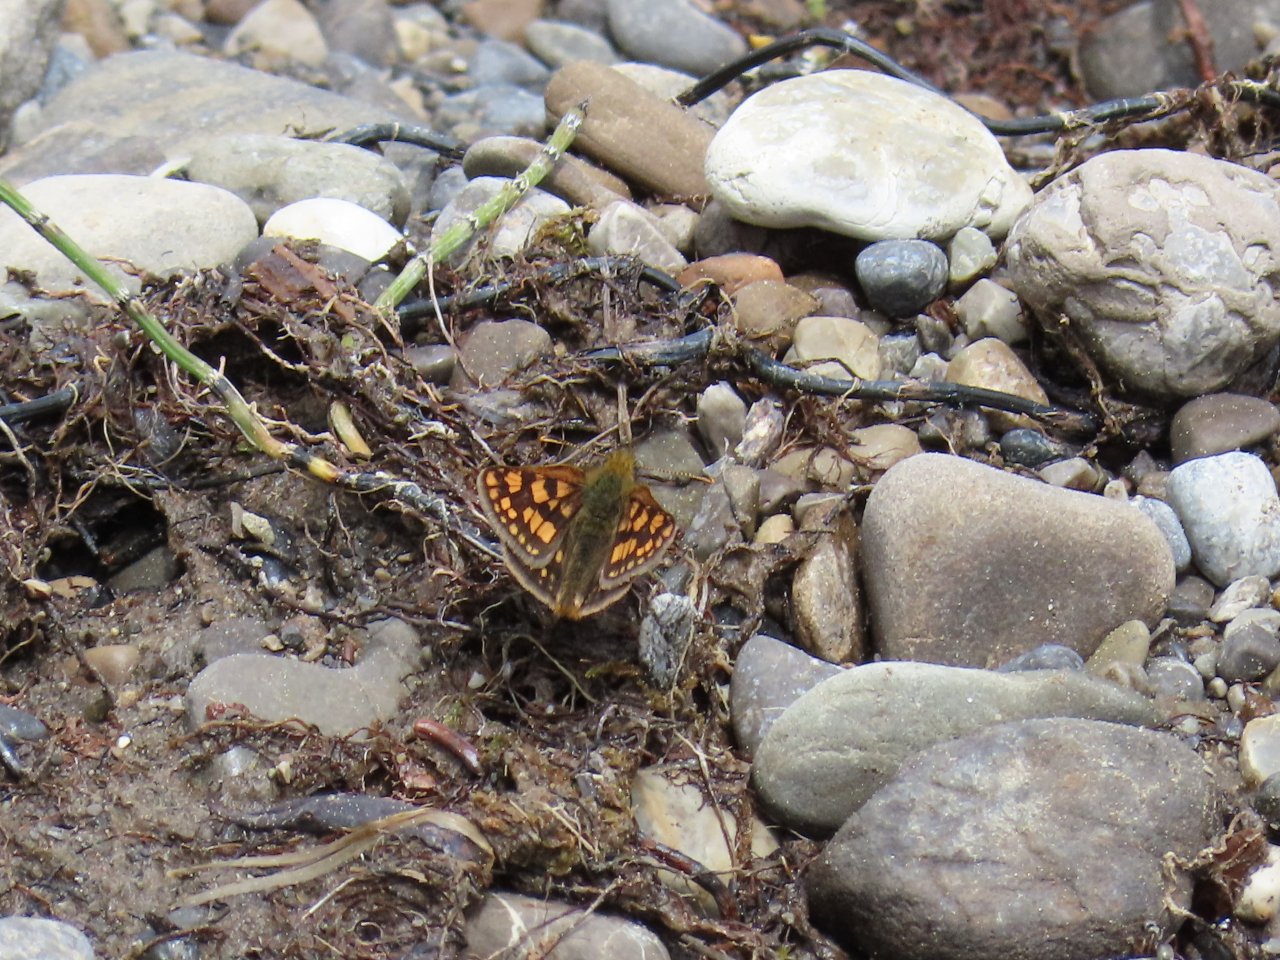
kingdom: Animalia
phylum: Arthropoda
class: Insecta
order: Lepidoptera
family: Hesperiidae
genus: Carterocephalus
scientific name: Carterocephalus palaemon
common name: Chequered Skipper
